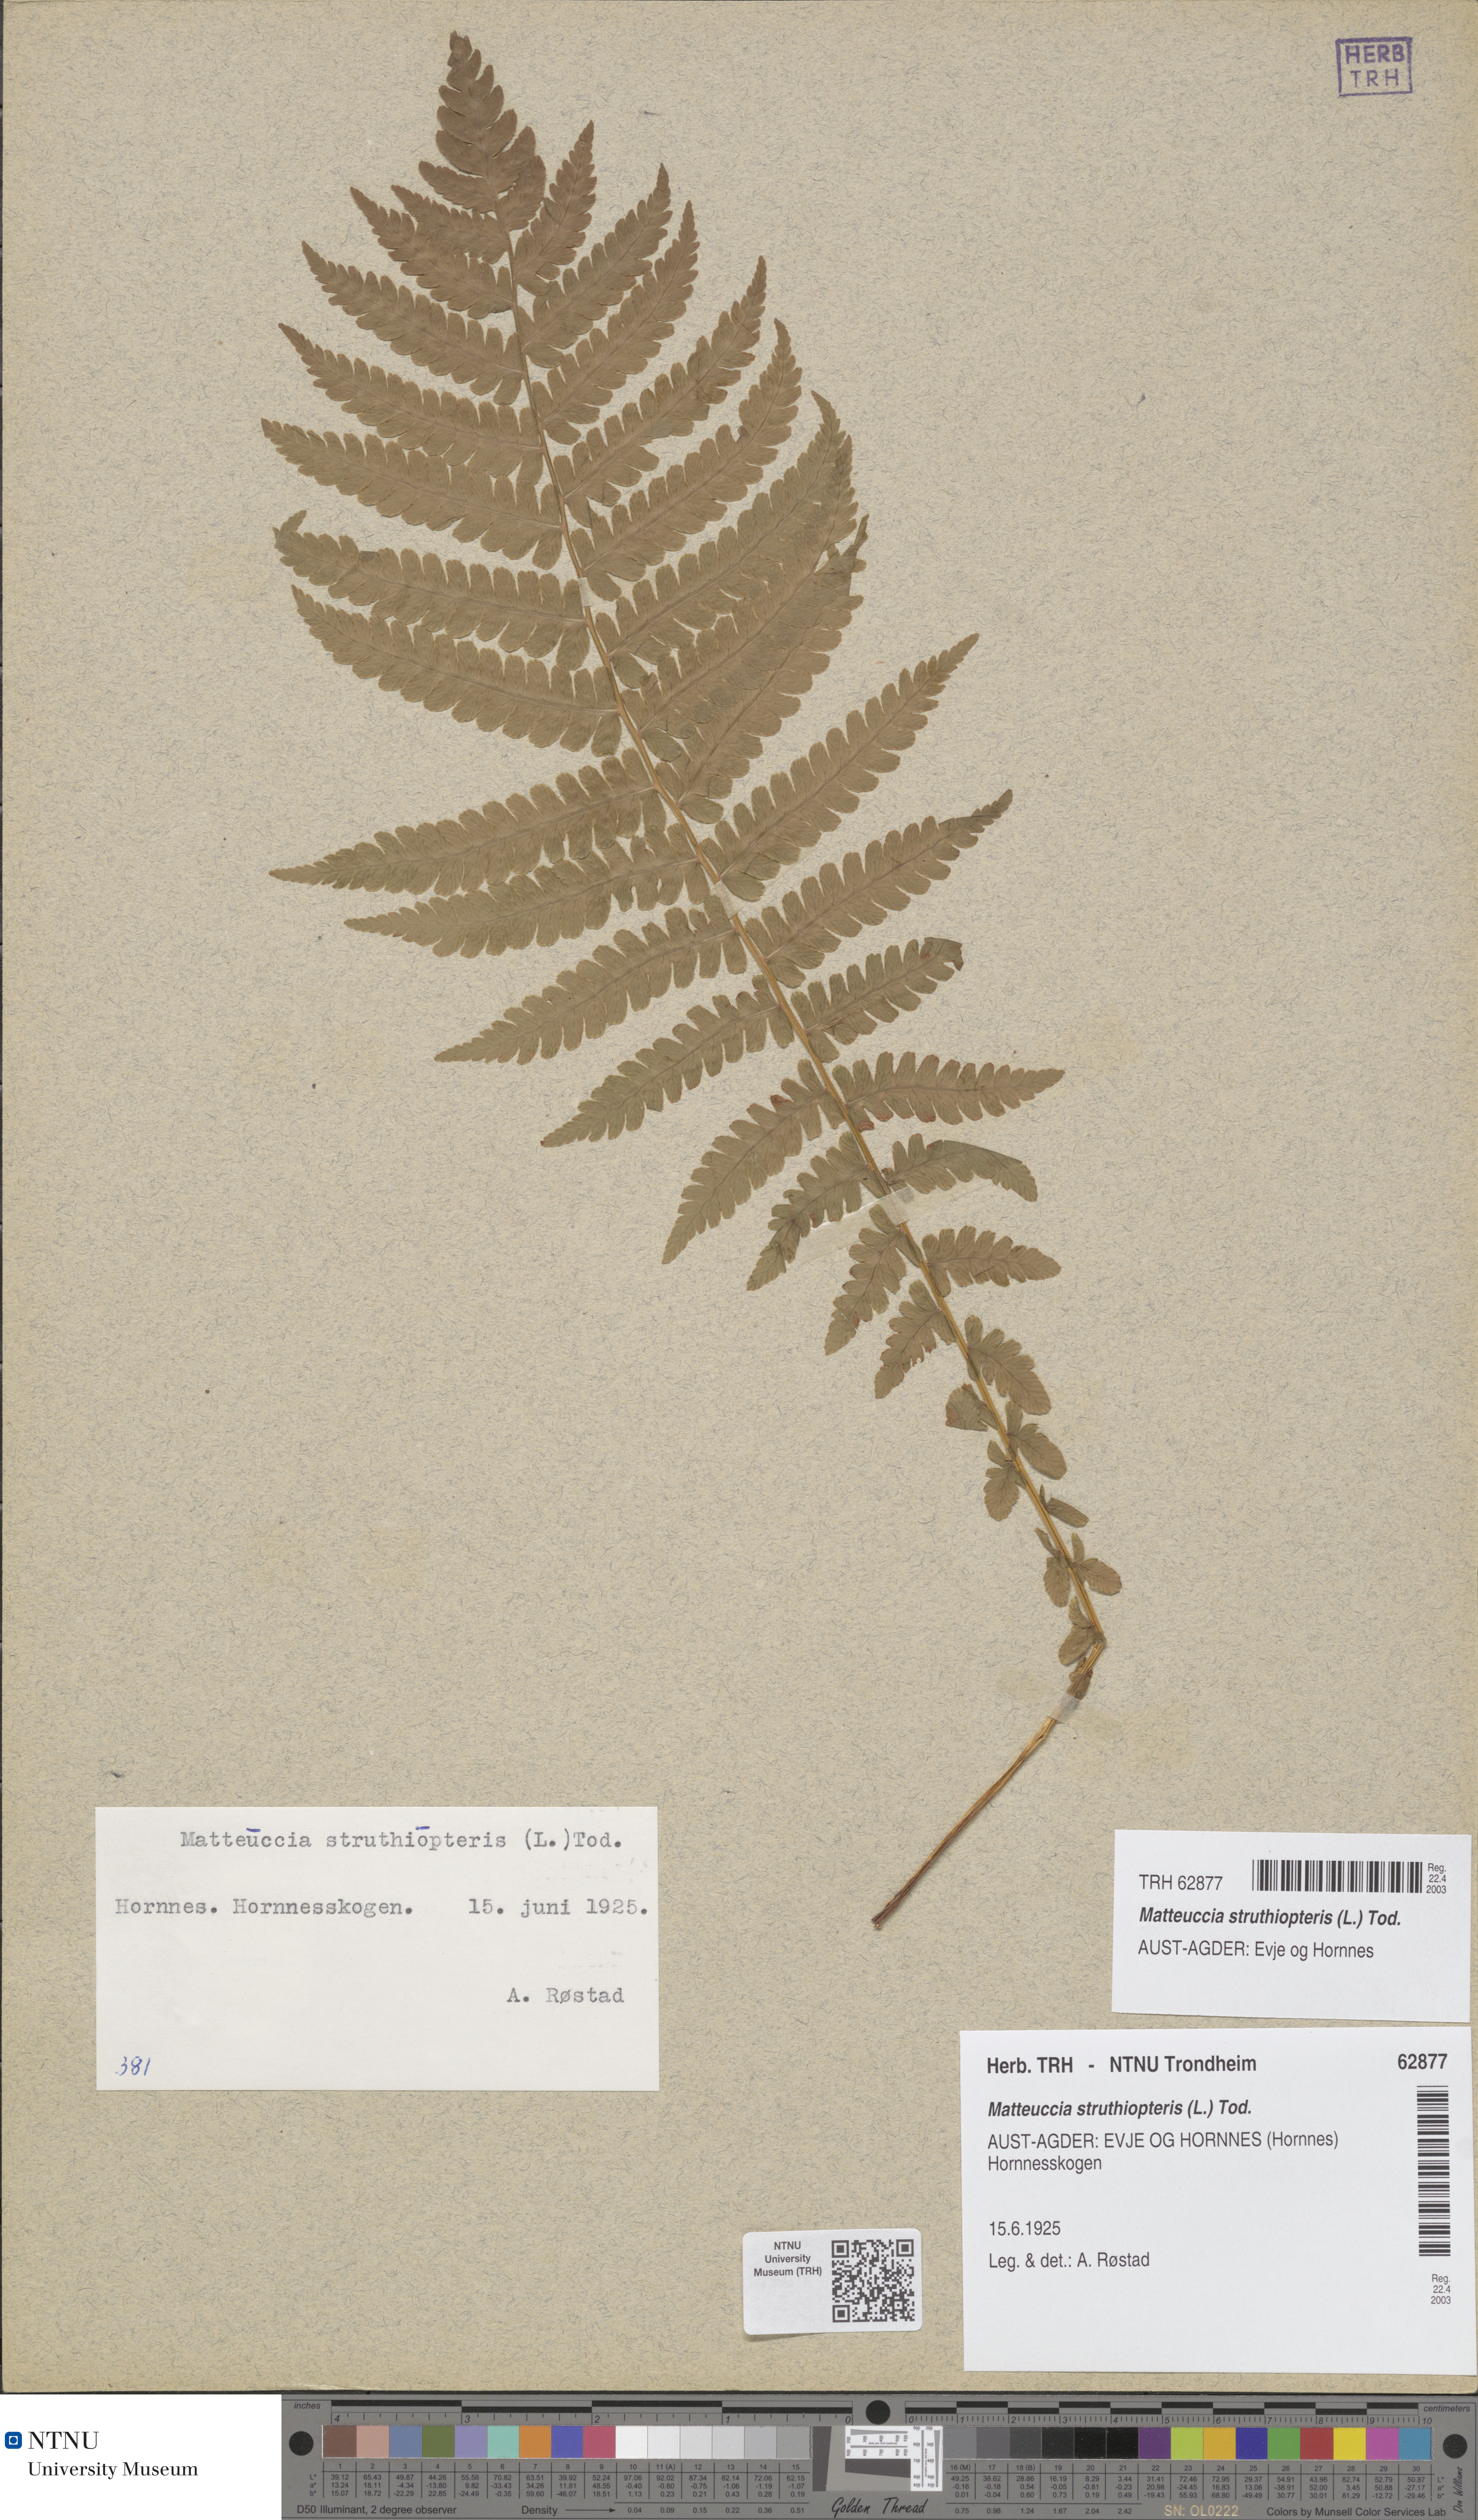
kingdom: Plantae
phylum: Tracheophyta
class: Polypodiopsida
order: Polypodiales
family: Onocleaceae
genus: Matteuccia
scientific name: Matteuccia struthiopteris
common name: Ostrich fern
